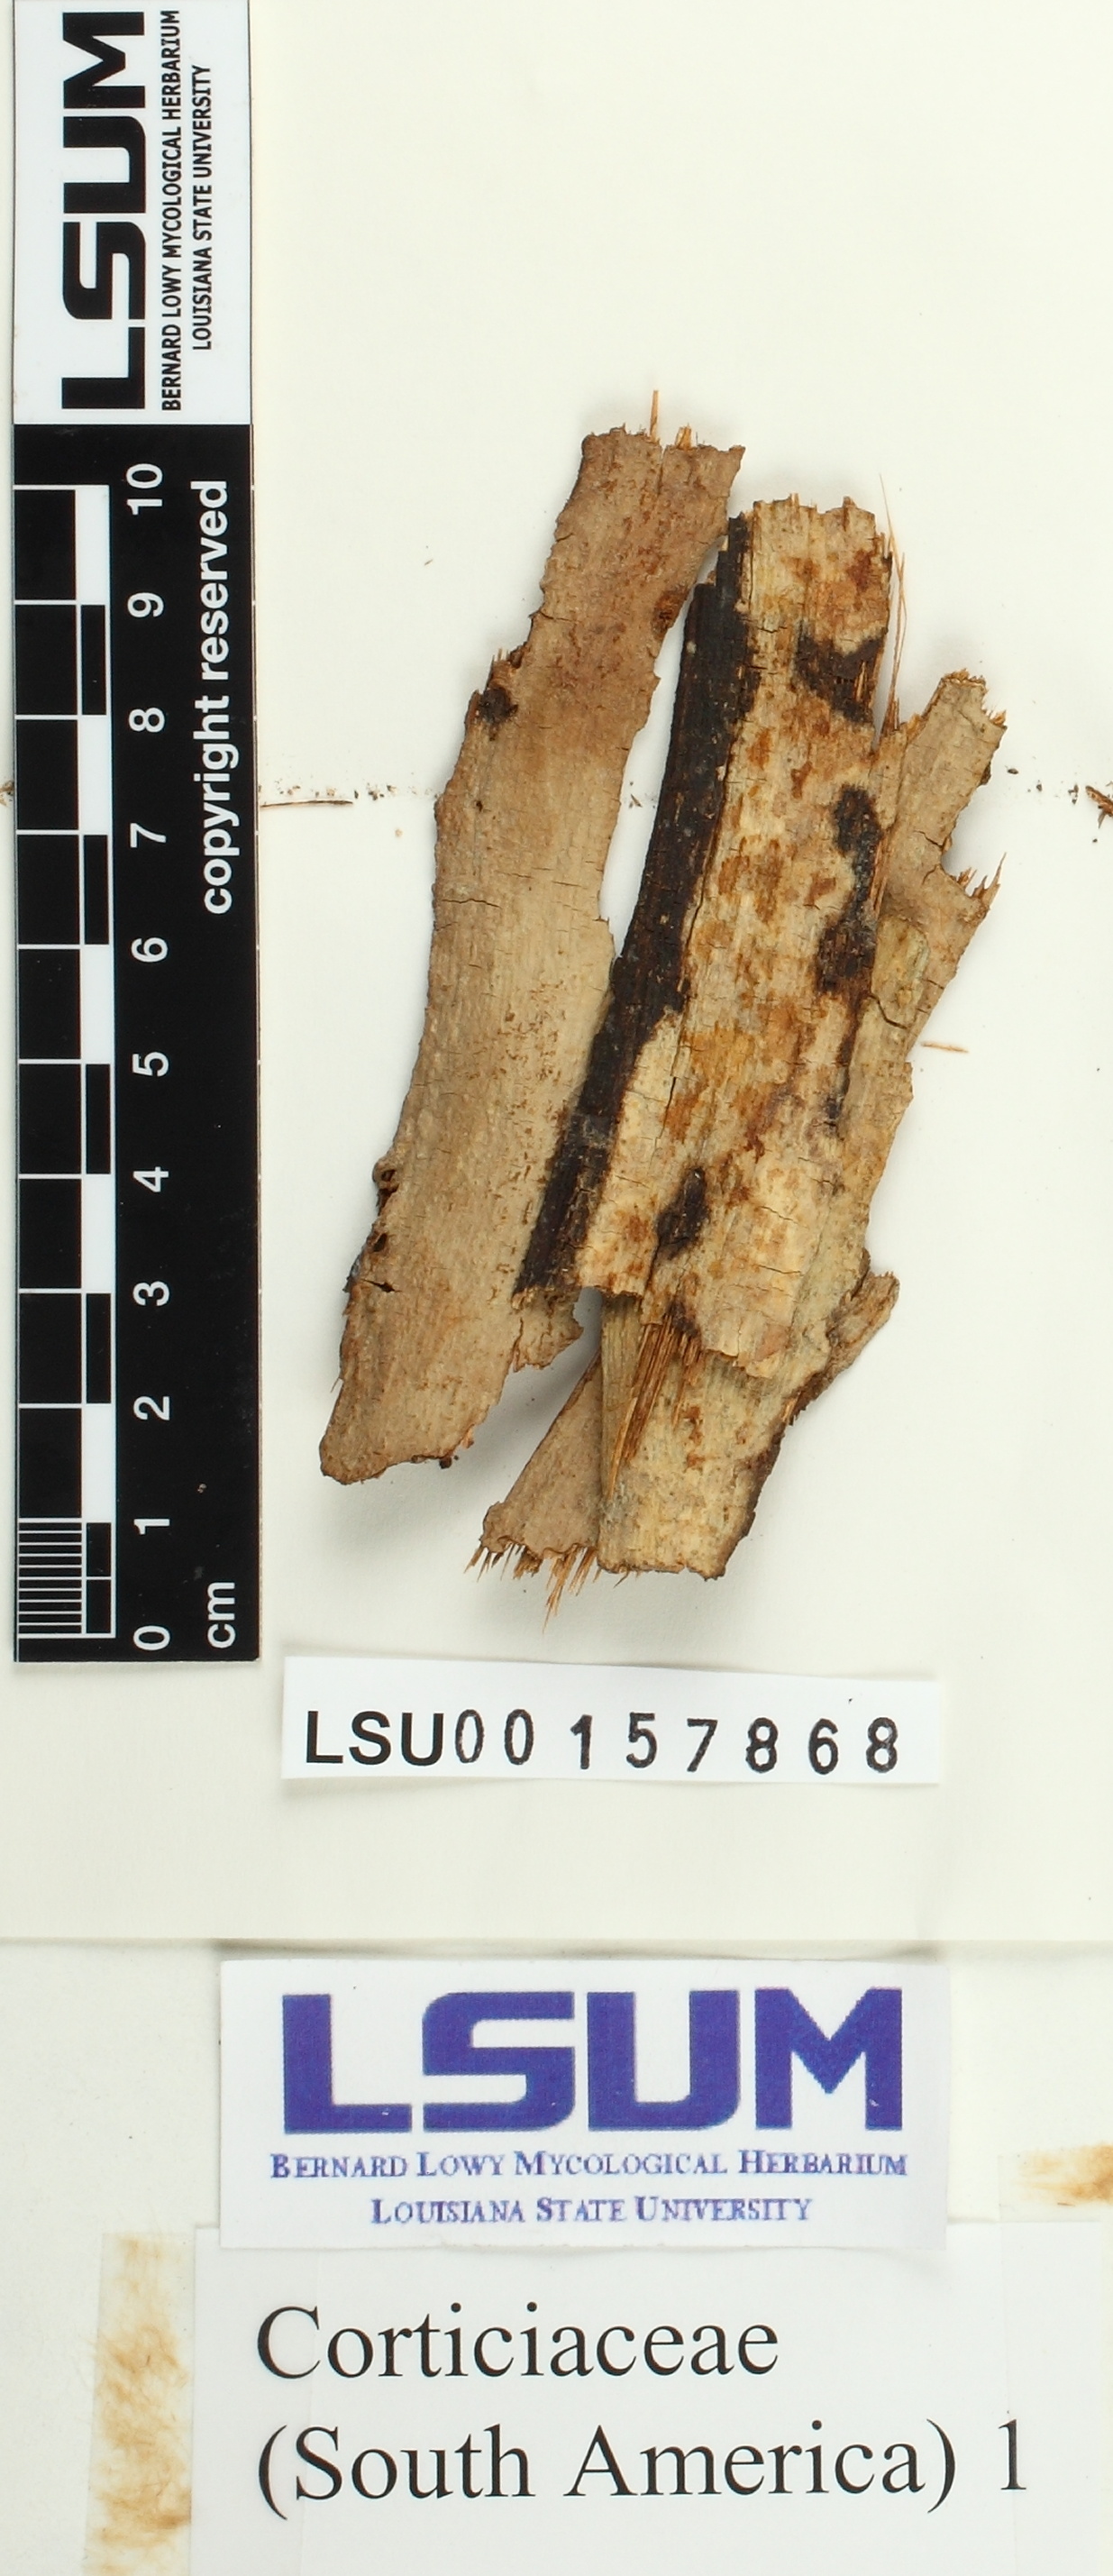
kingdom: Fungi
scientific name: Fungi
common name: Fungi
